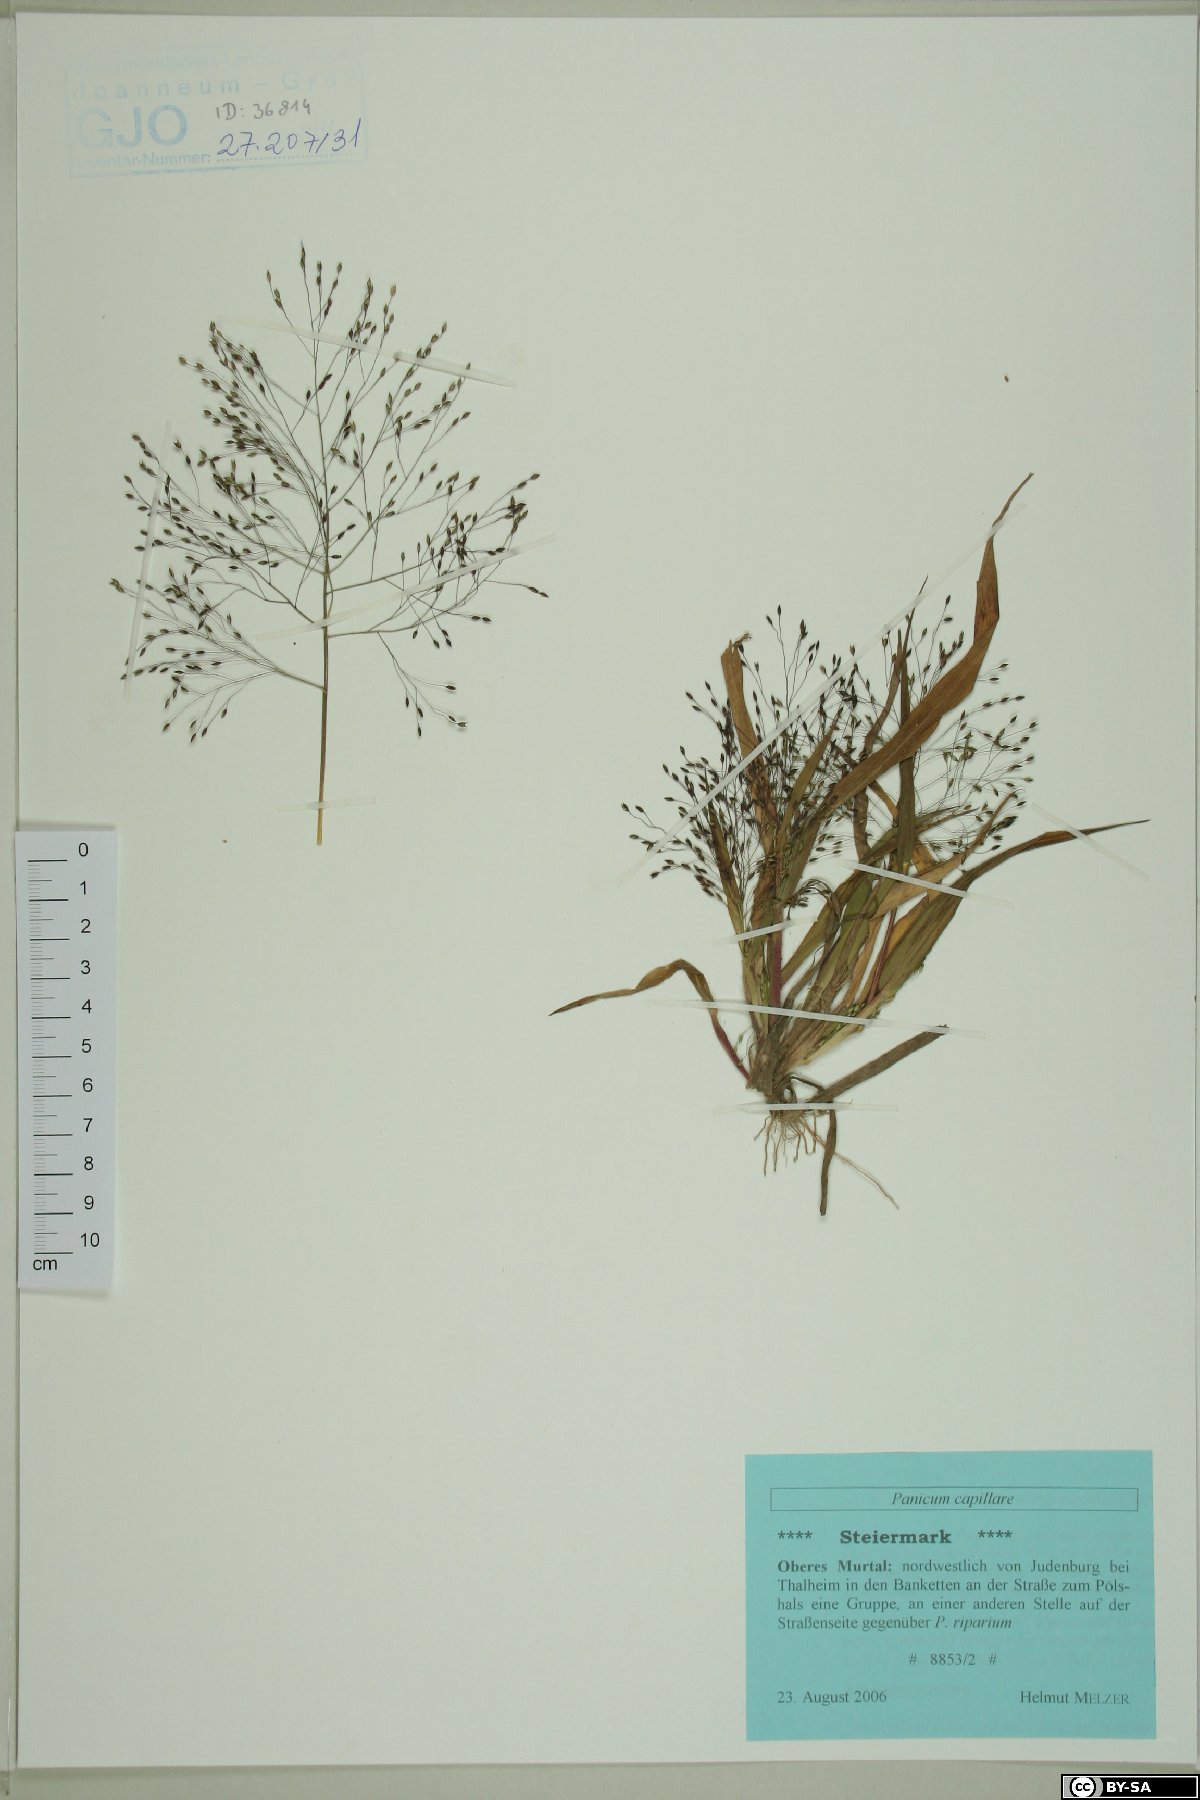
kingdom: Plantae
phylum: Tracheophyta
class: Liliopsida
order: Poales
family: Poaceae
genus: Panicum
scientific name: Panicum capillare
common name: Witch-grass
